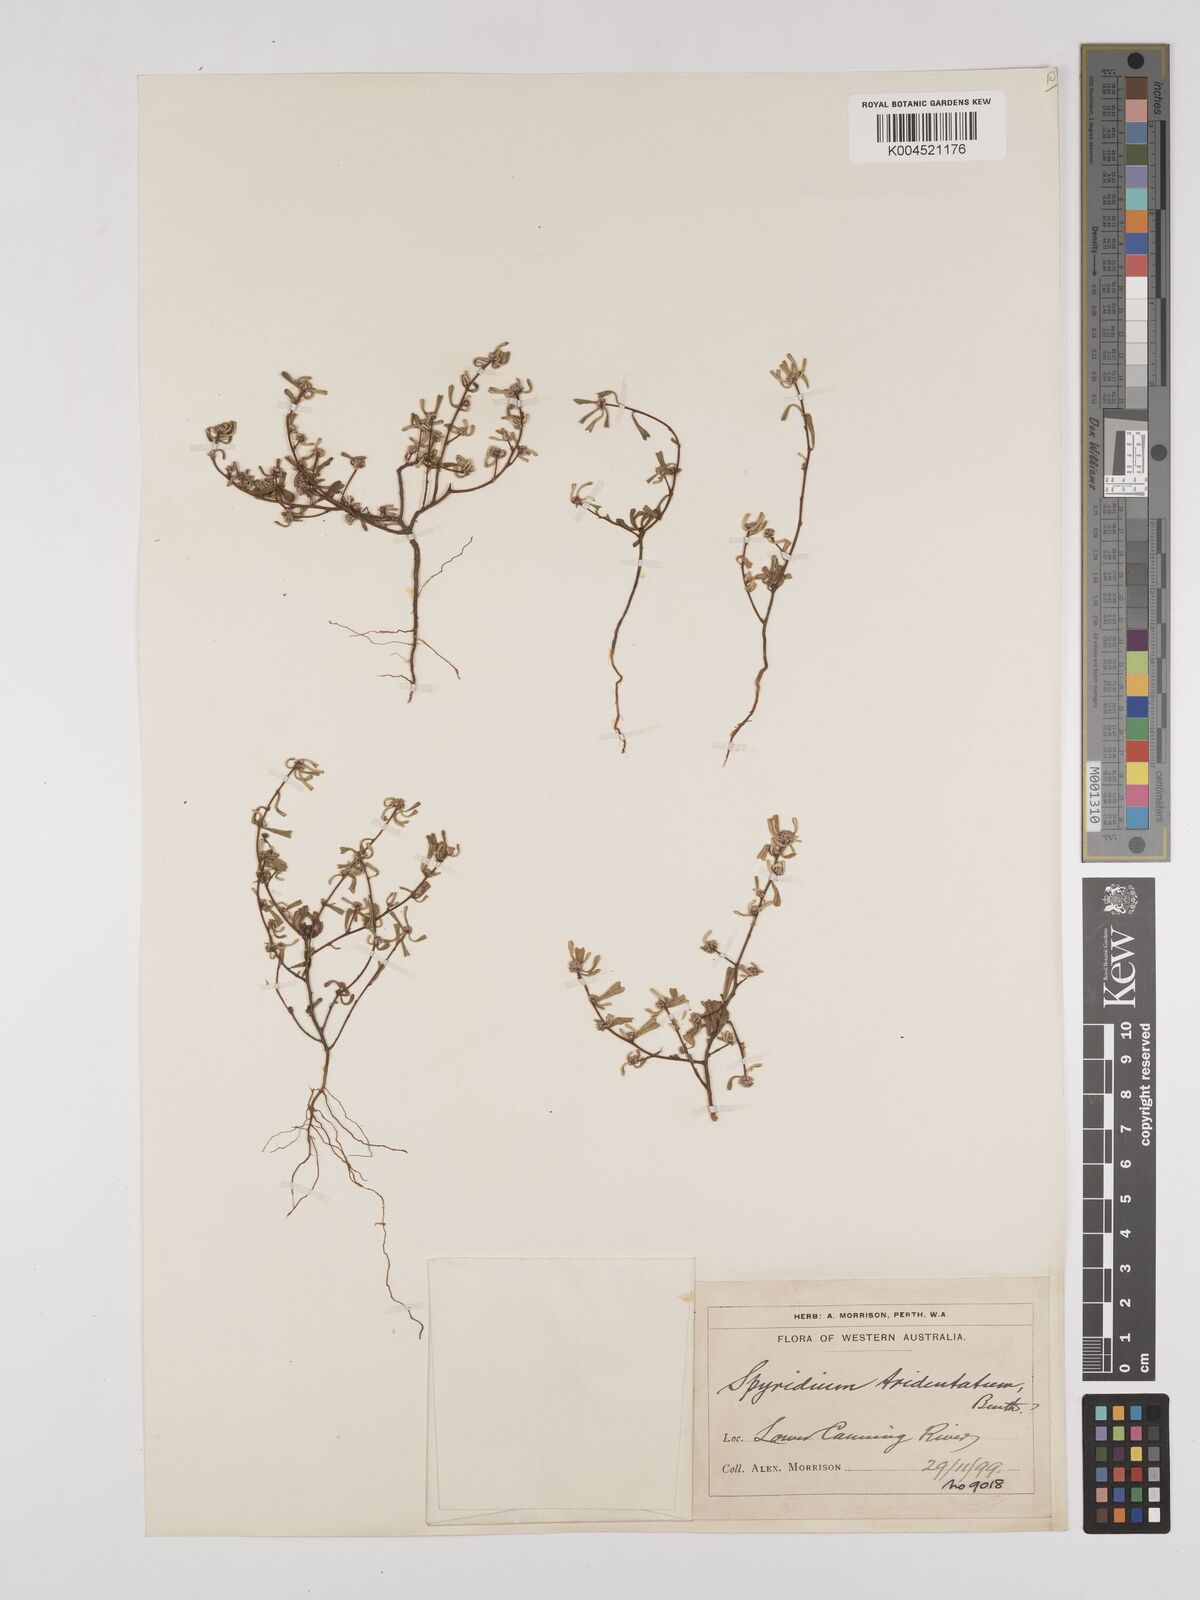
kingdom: Plantae
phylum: Tracheophyta
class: Magnoliopsida
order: Rosales
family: Rhamnaceae
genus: Stenanthemum
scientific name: Stenanthemum tridentatum
